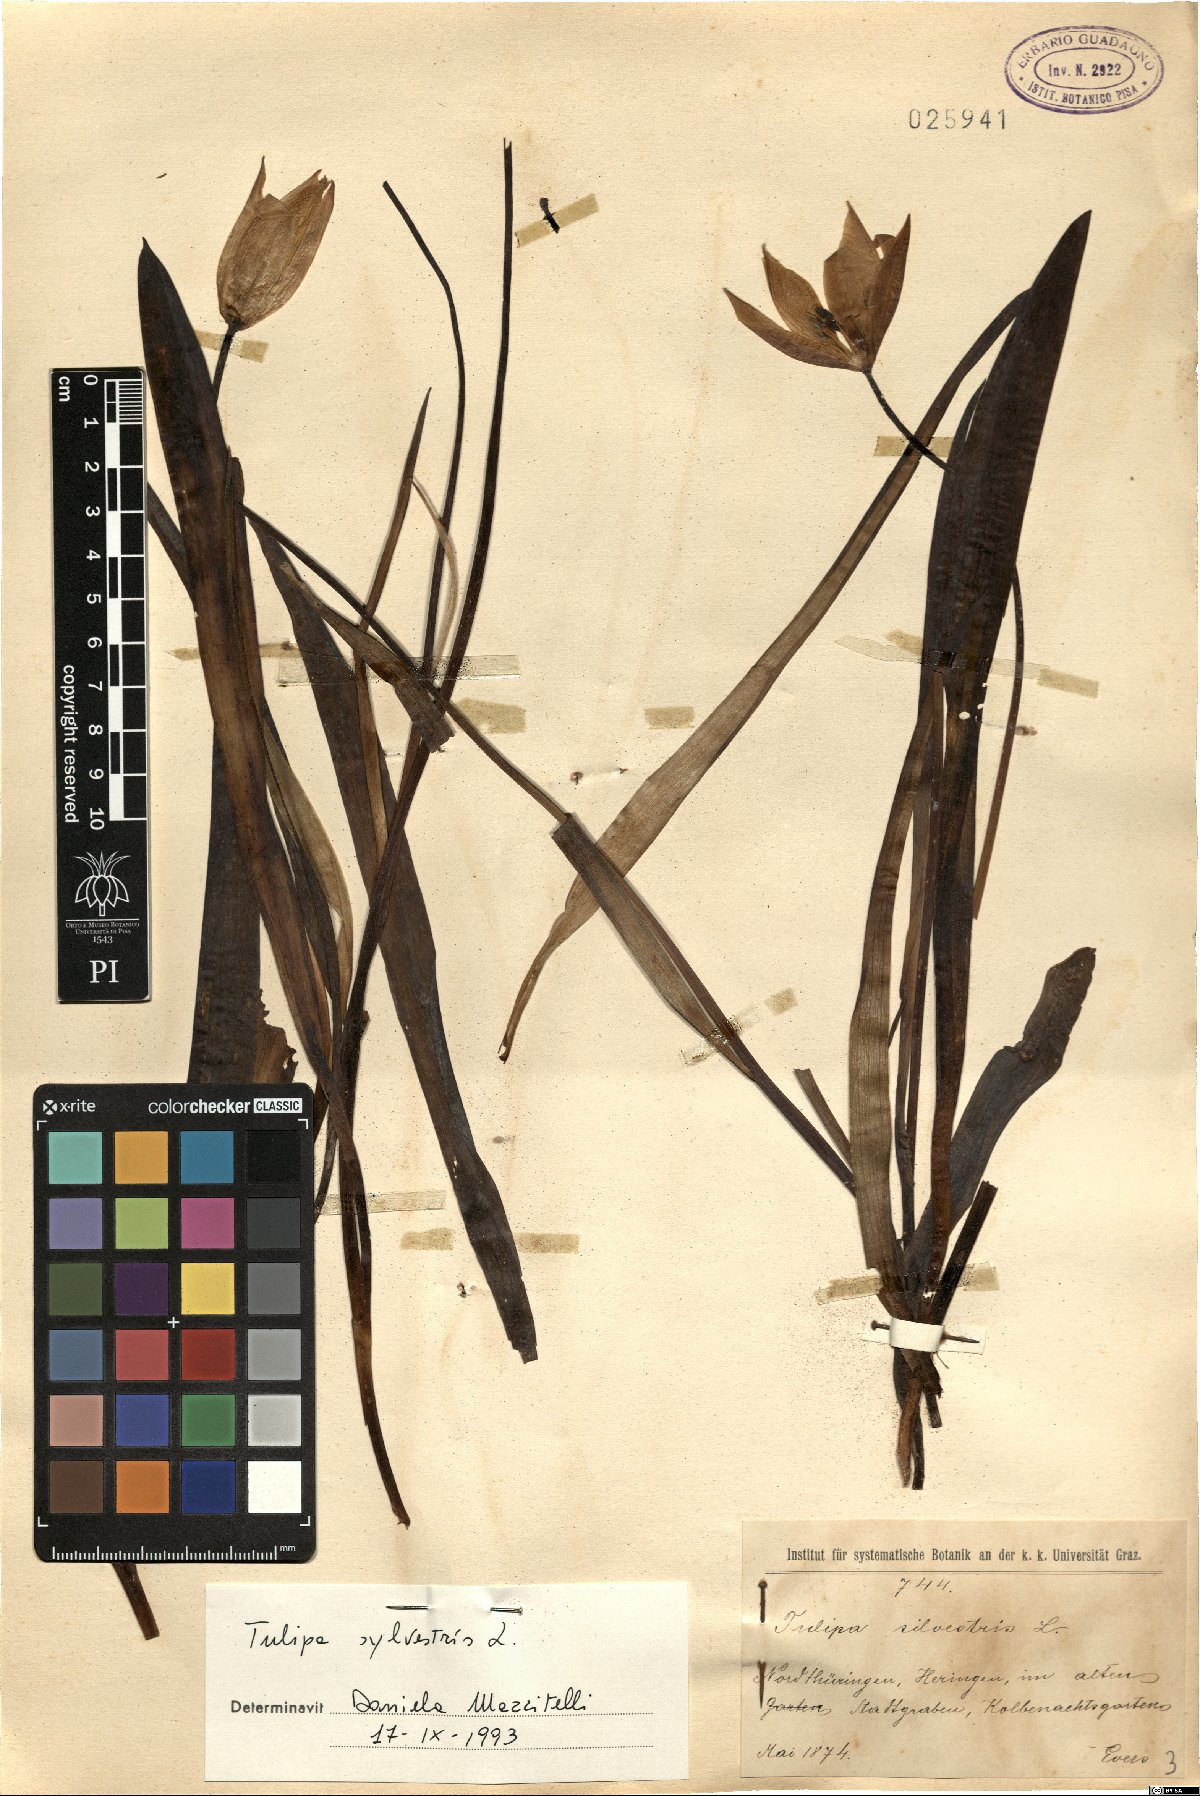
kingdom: Plantae
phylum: Tracheophyta
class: Liliopsida
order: Liliales
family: Liliaceae
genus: Tulipa
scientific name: Tulipa sylvestris
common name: Wild tulip
